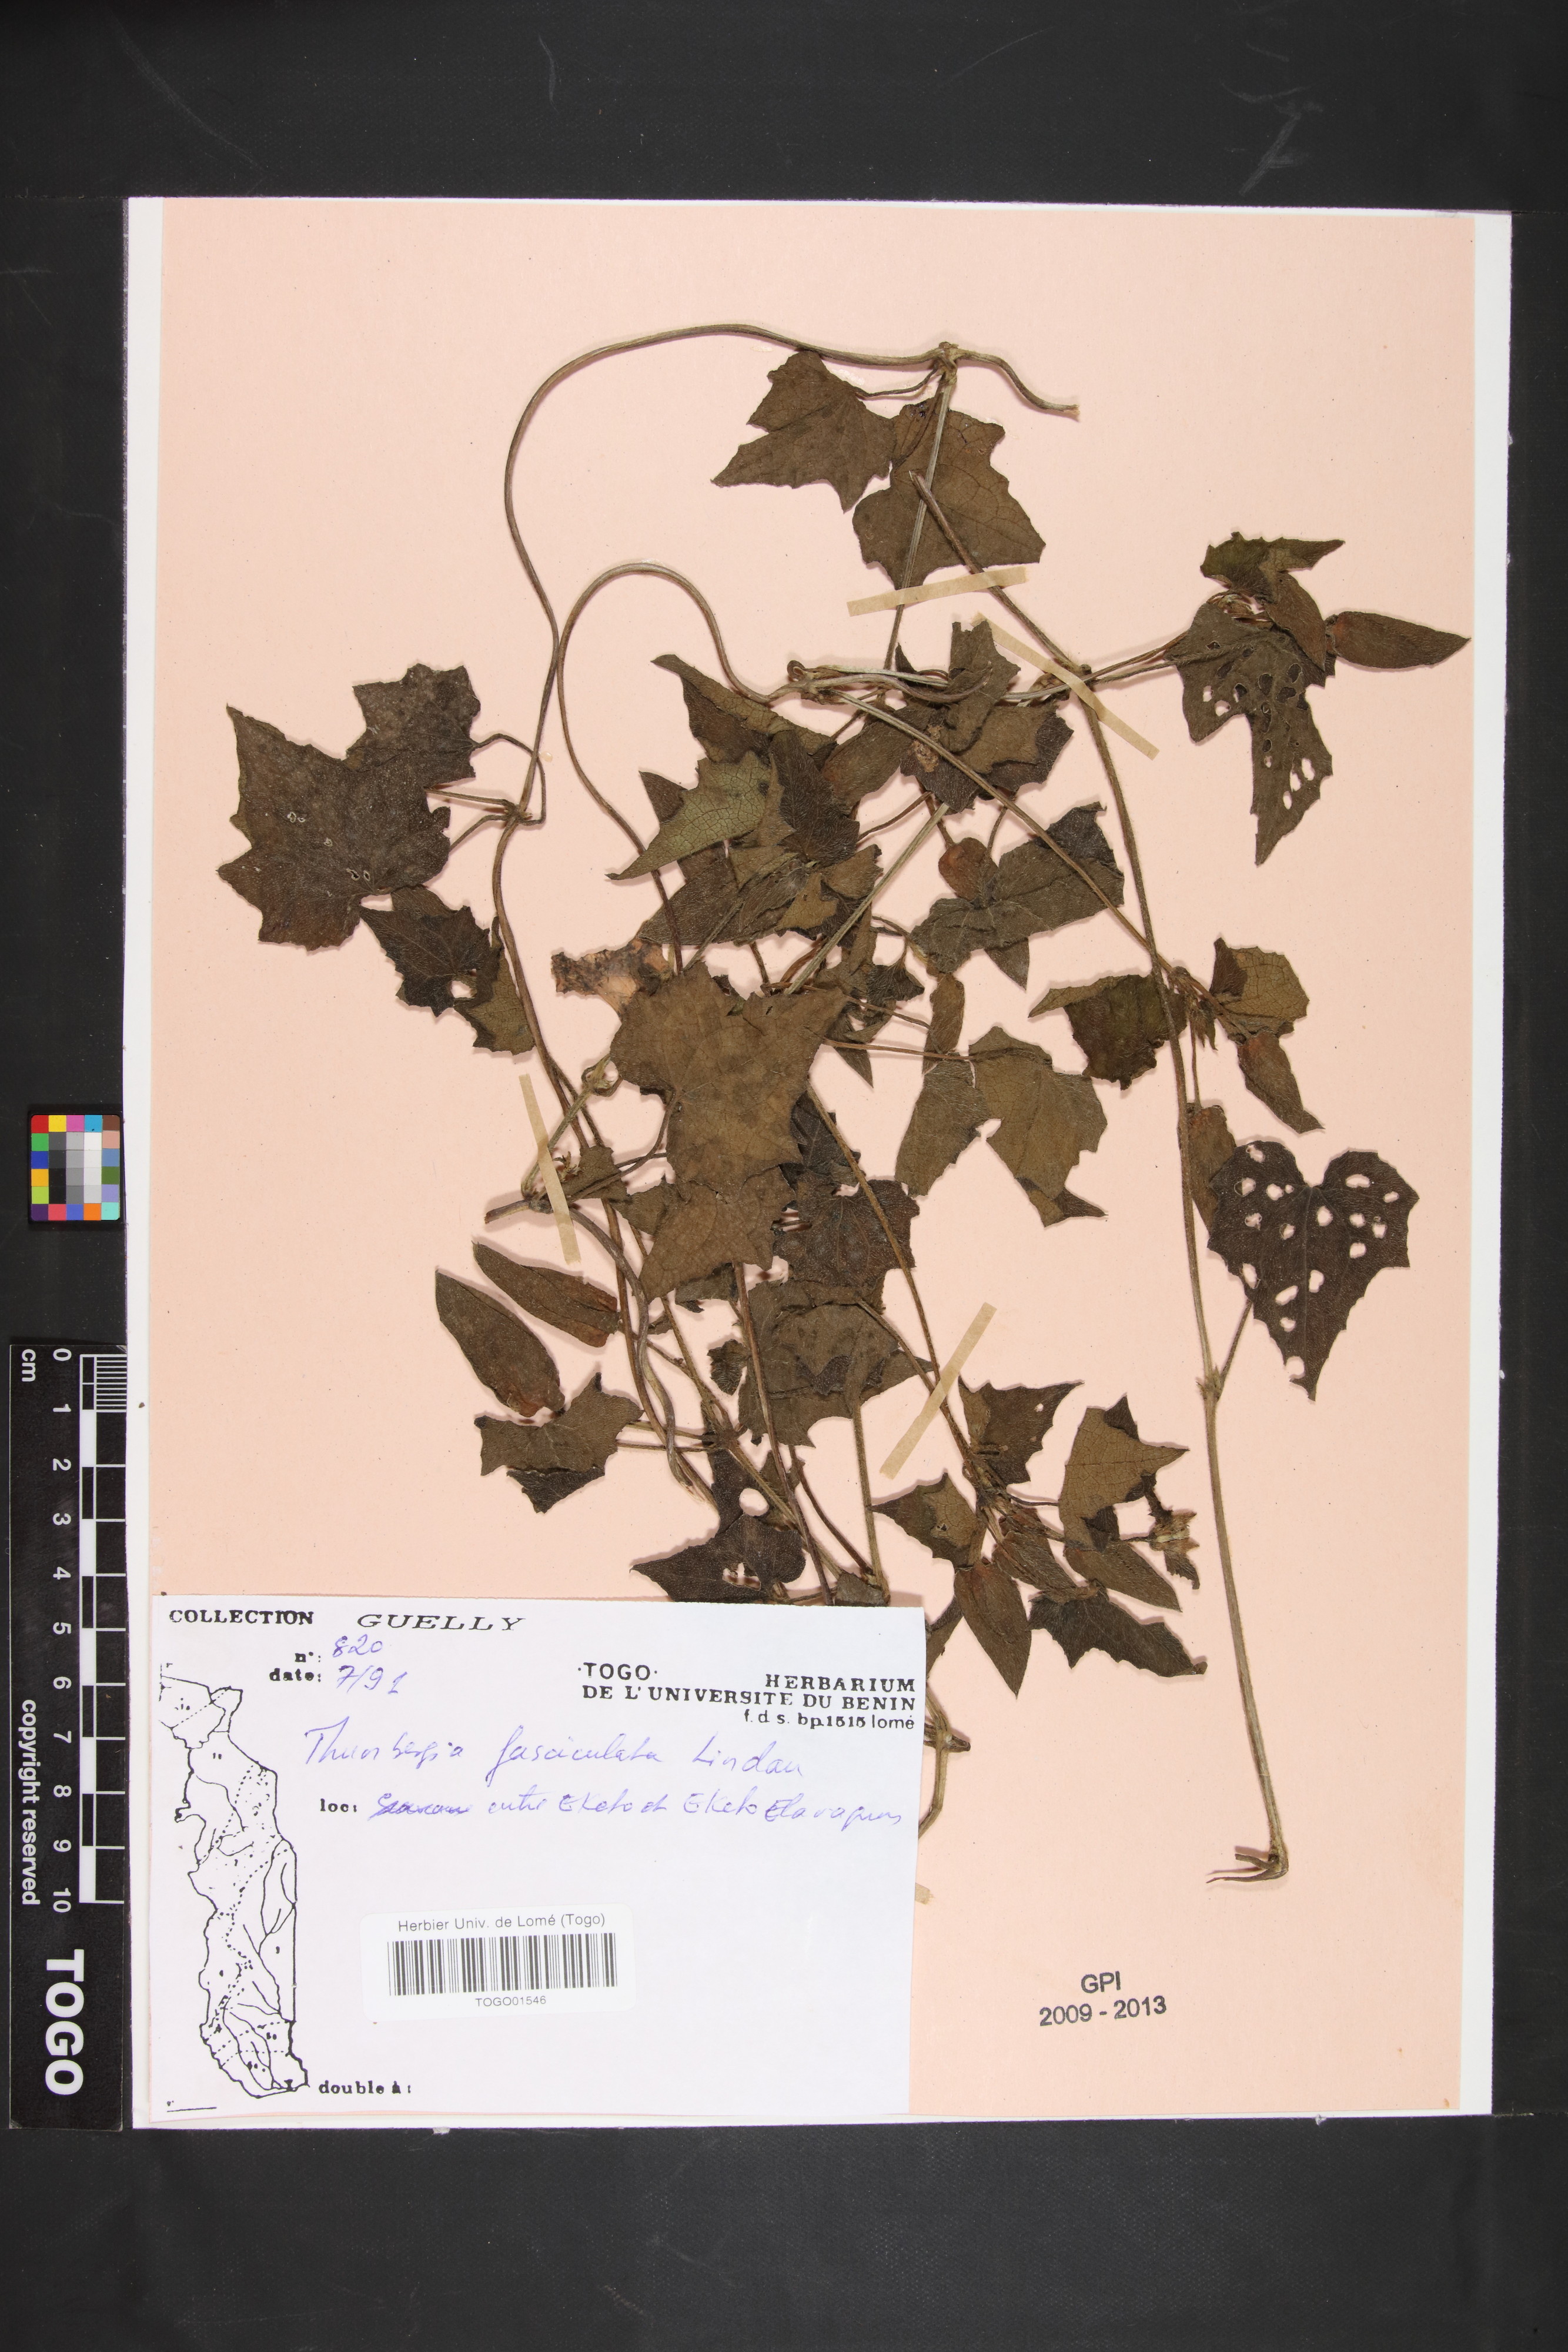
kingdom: Plantae
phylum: Tracheophyta
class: Magnoliopsida
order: Lamiales
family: Acanthaceae
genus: Thunbergia
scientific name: Thunbergia fasciculata
